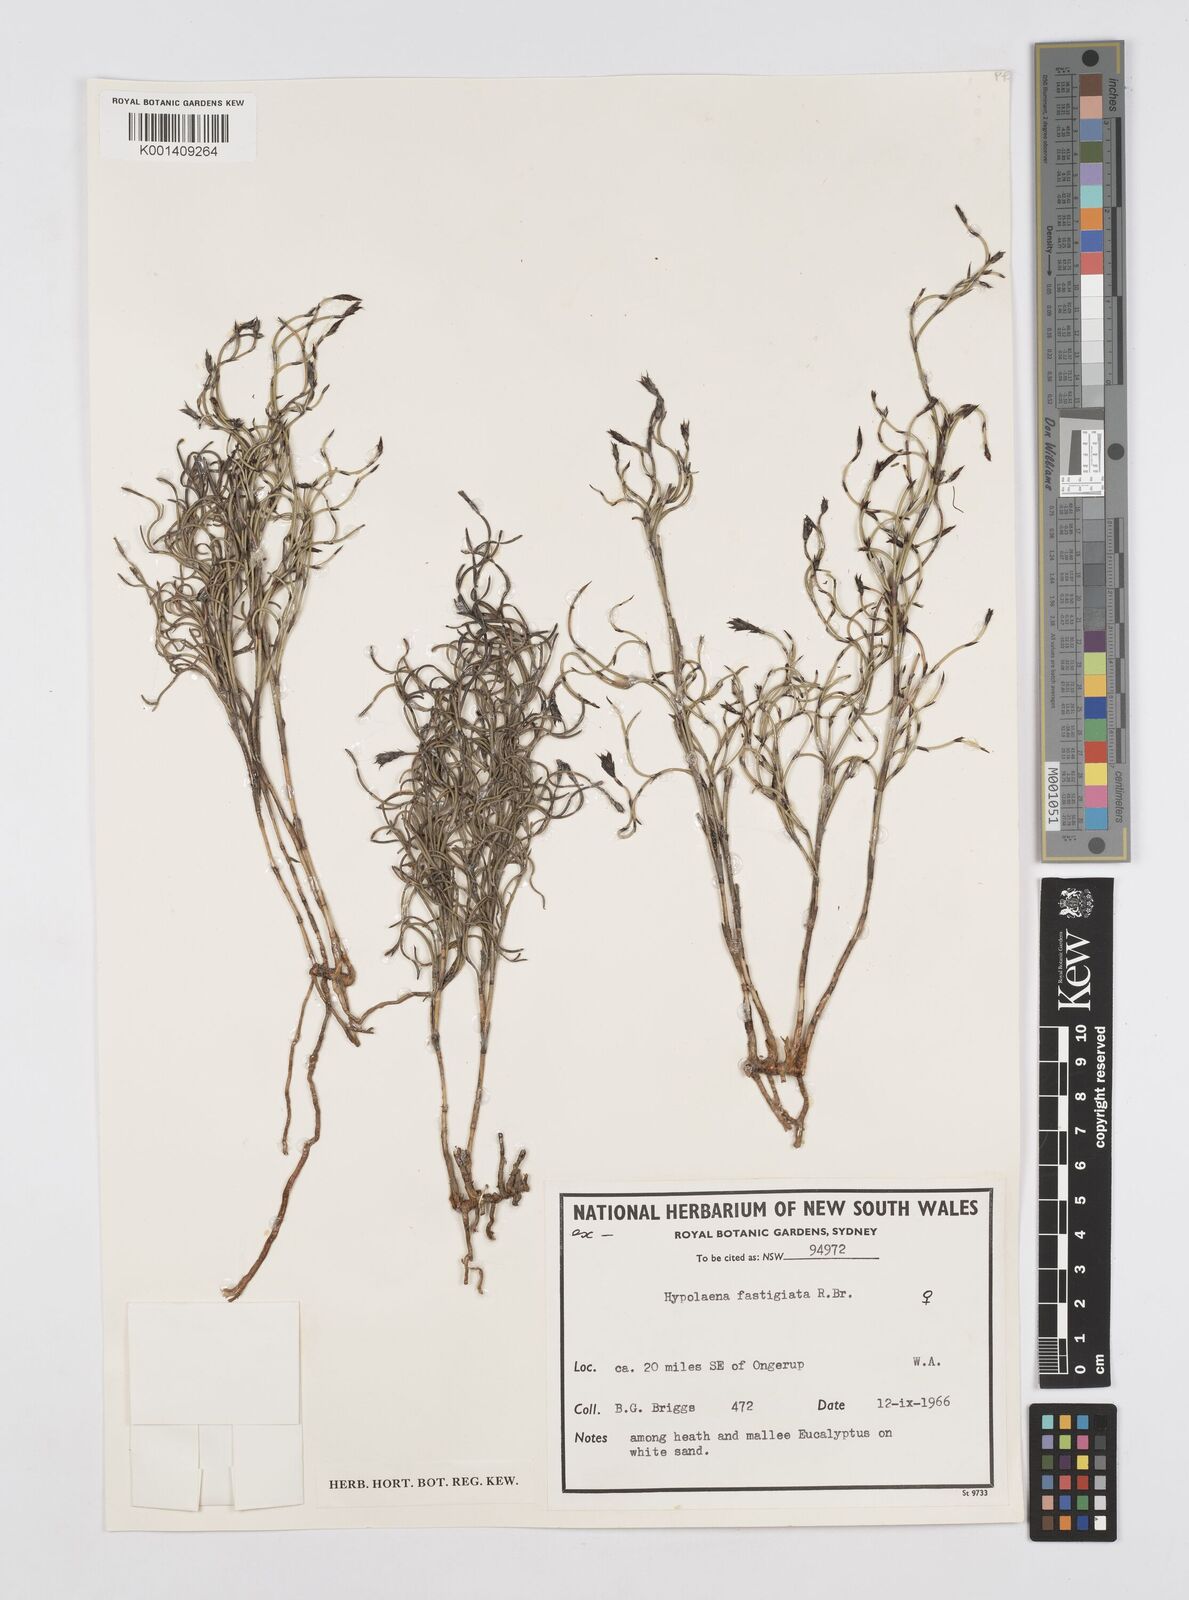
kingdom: Plantae
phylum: Tracheophyta
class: Liliopsida
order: Poales
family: Restionaceae
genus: Hypolaena
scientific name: Hypolaena fastigiata
